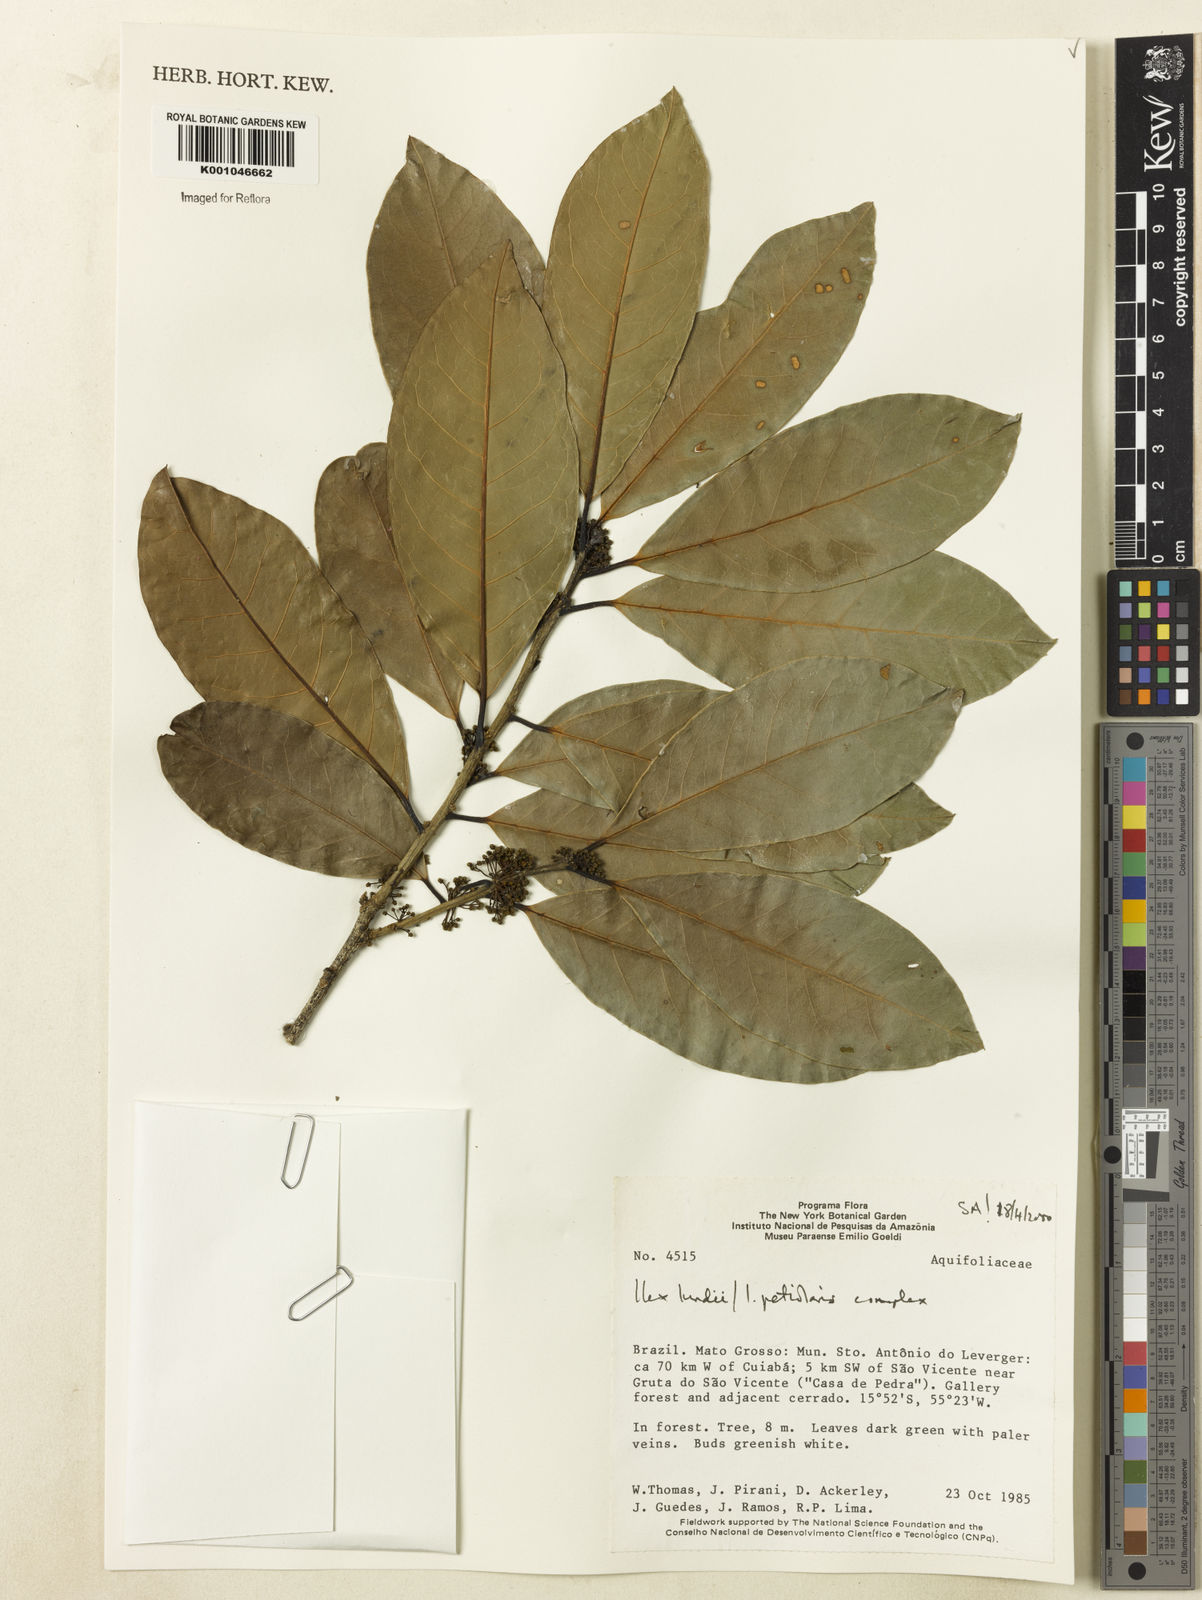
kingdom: Plantae
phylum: Tracheophyta
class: Magnoliopsida
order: Aquifoliales
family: Aquifoliaceae
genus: Ilex
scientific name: Ilex lundii
